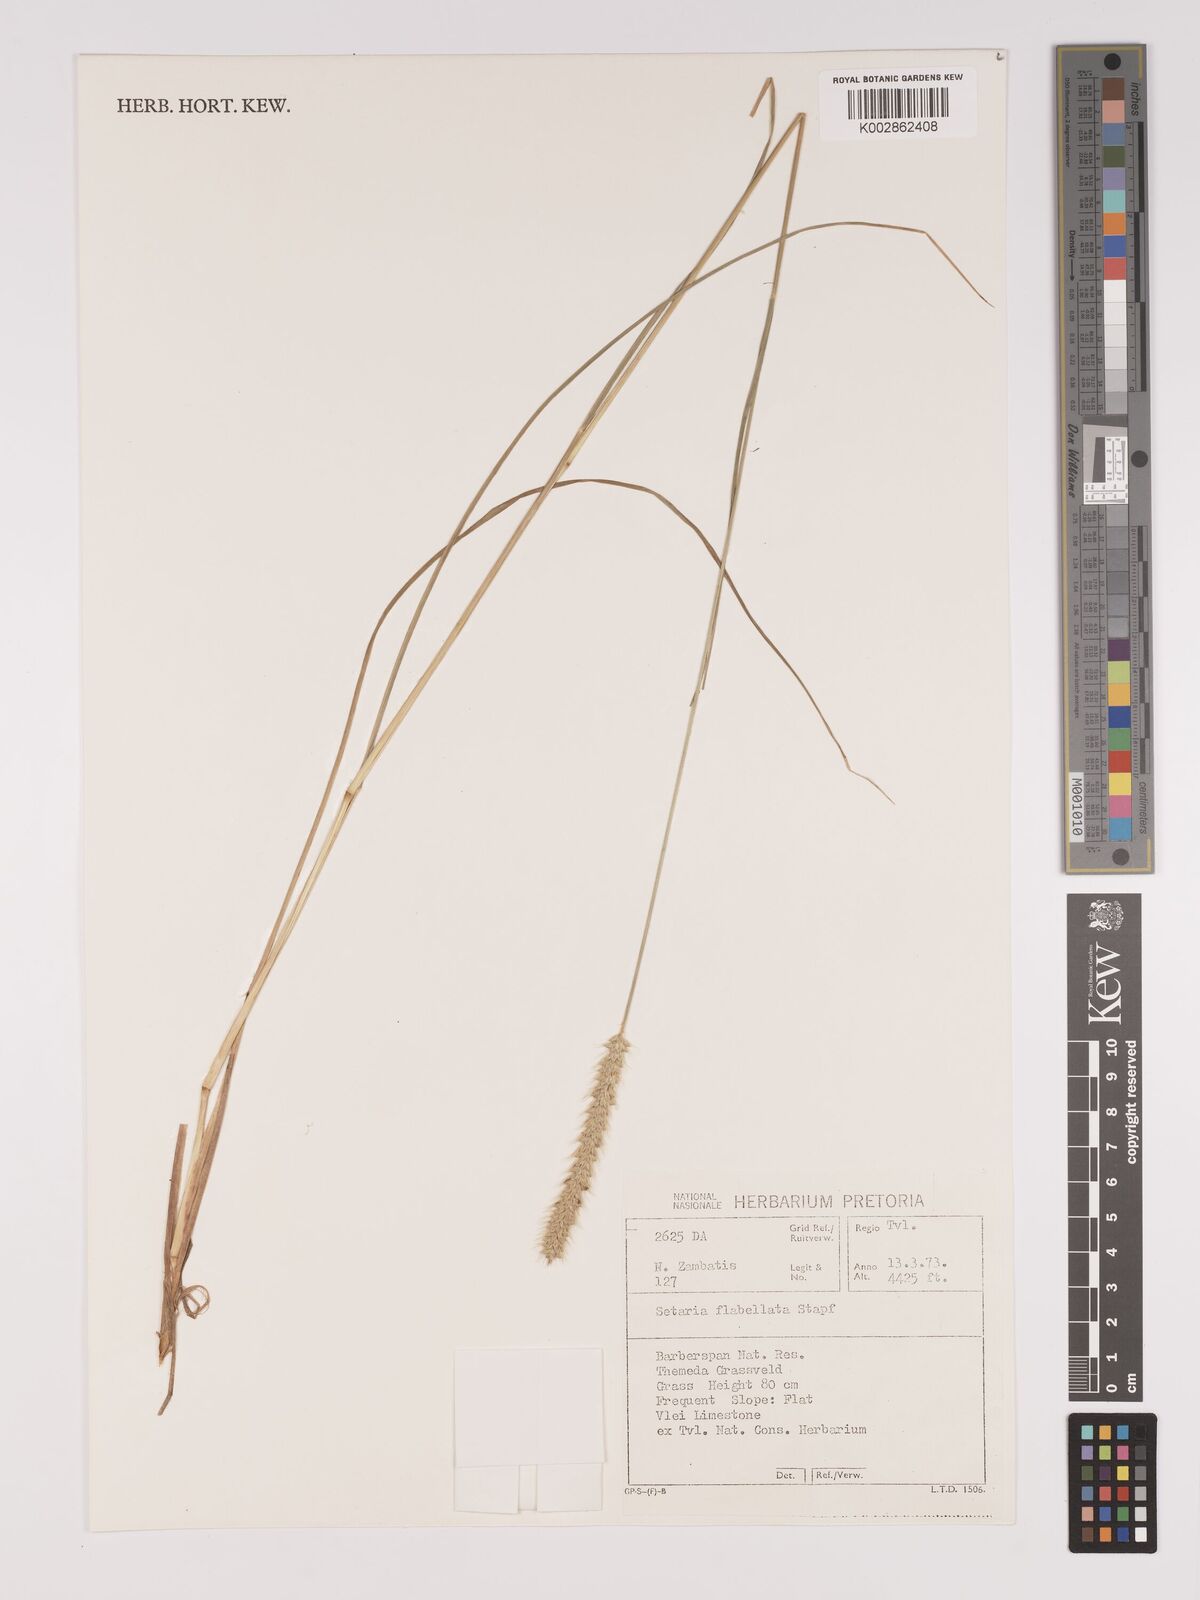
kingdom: Plantae
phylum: Tracheophyta
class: Liliopsida
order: Poales
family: Poaceae
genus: Setaria
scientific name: Setaria sphacelata
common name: African bristlegrass
